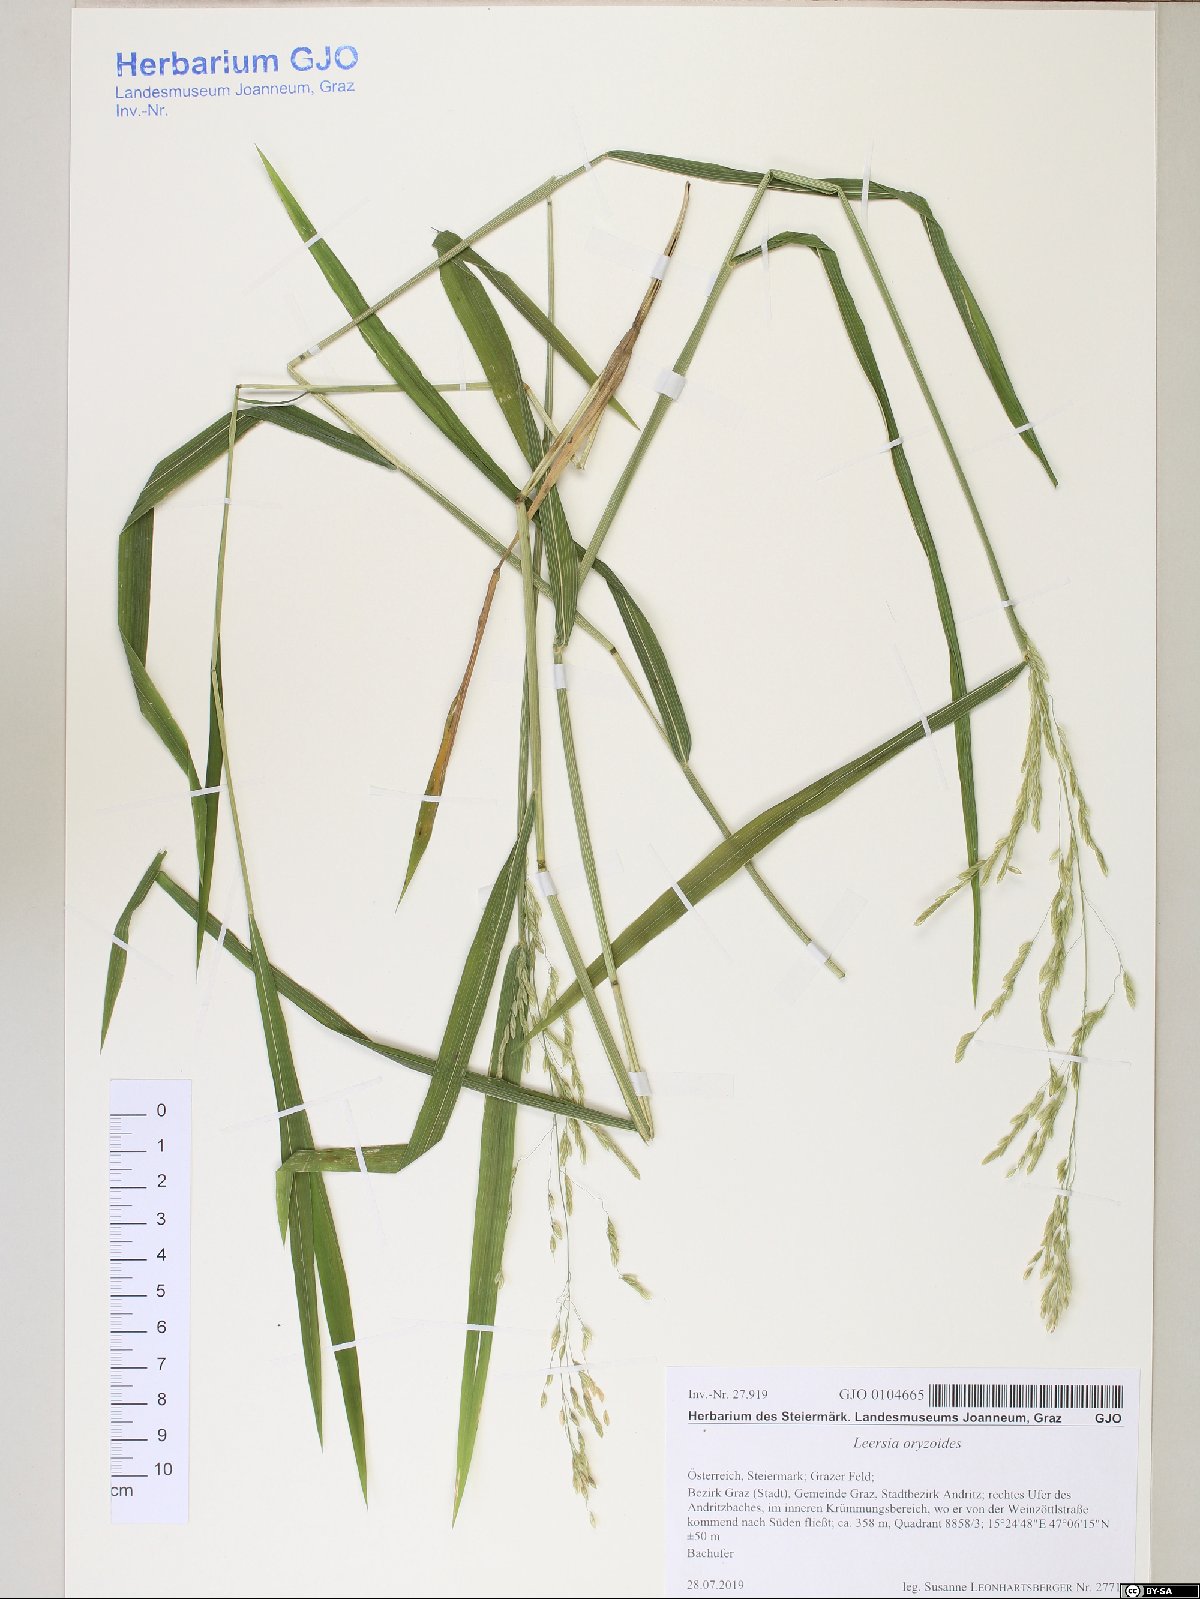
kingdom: Plantae
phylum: Tracheophyta
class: Liliopsida
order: Poales
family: Poaceae
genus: Leersia
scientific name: Leersia oryzoides
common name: Cut-grass
